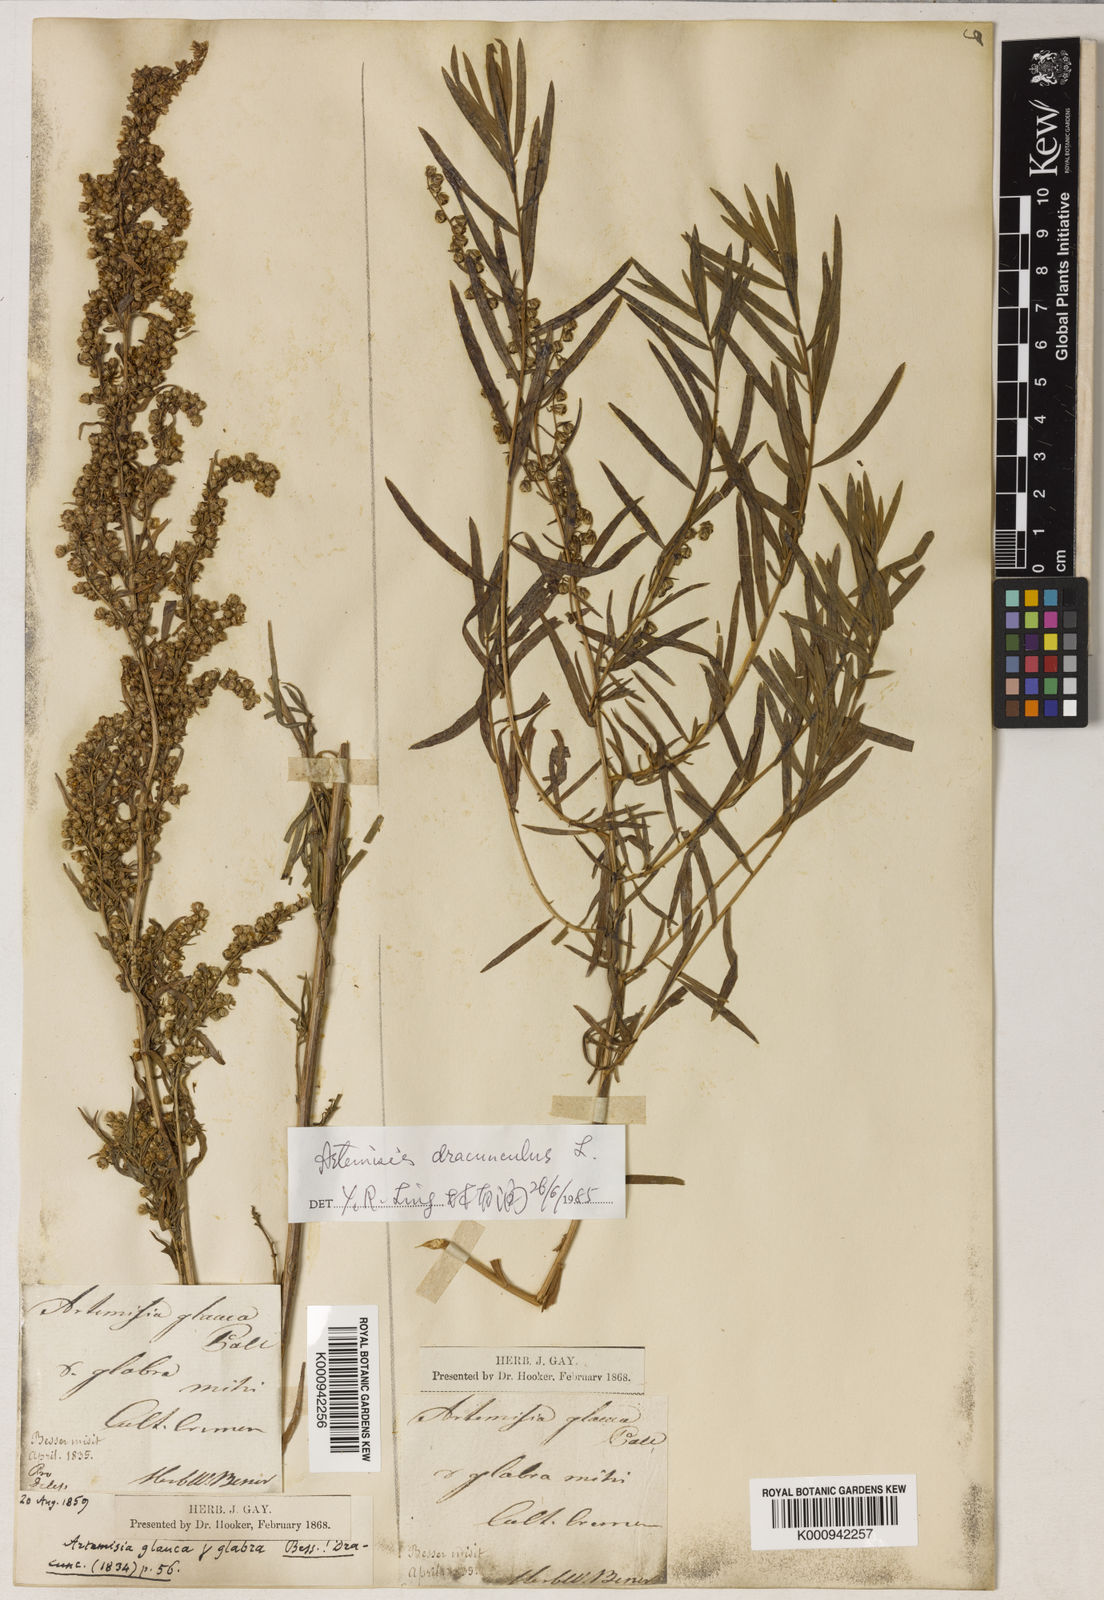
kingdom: Plantae
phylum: Tracheophyta
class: Magnoliopsida
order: Asterales
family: Asteraceae
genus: Artemisia
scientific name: Artemisia dracunculus
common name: Tarragon
